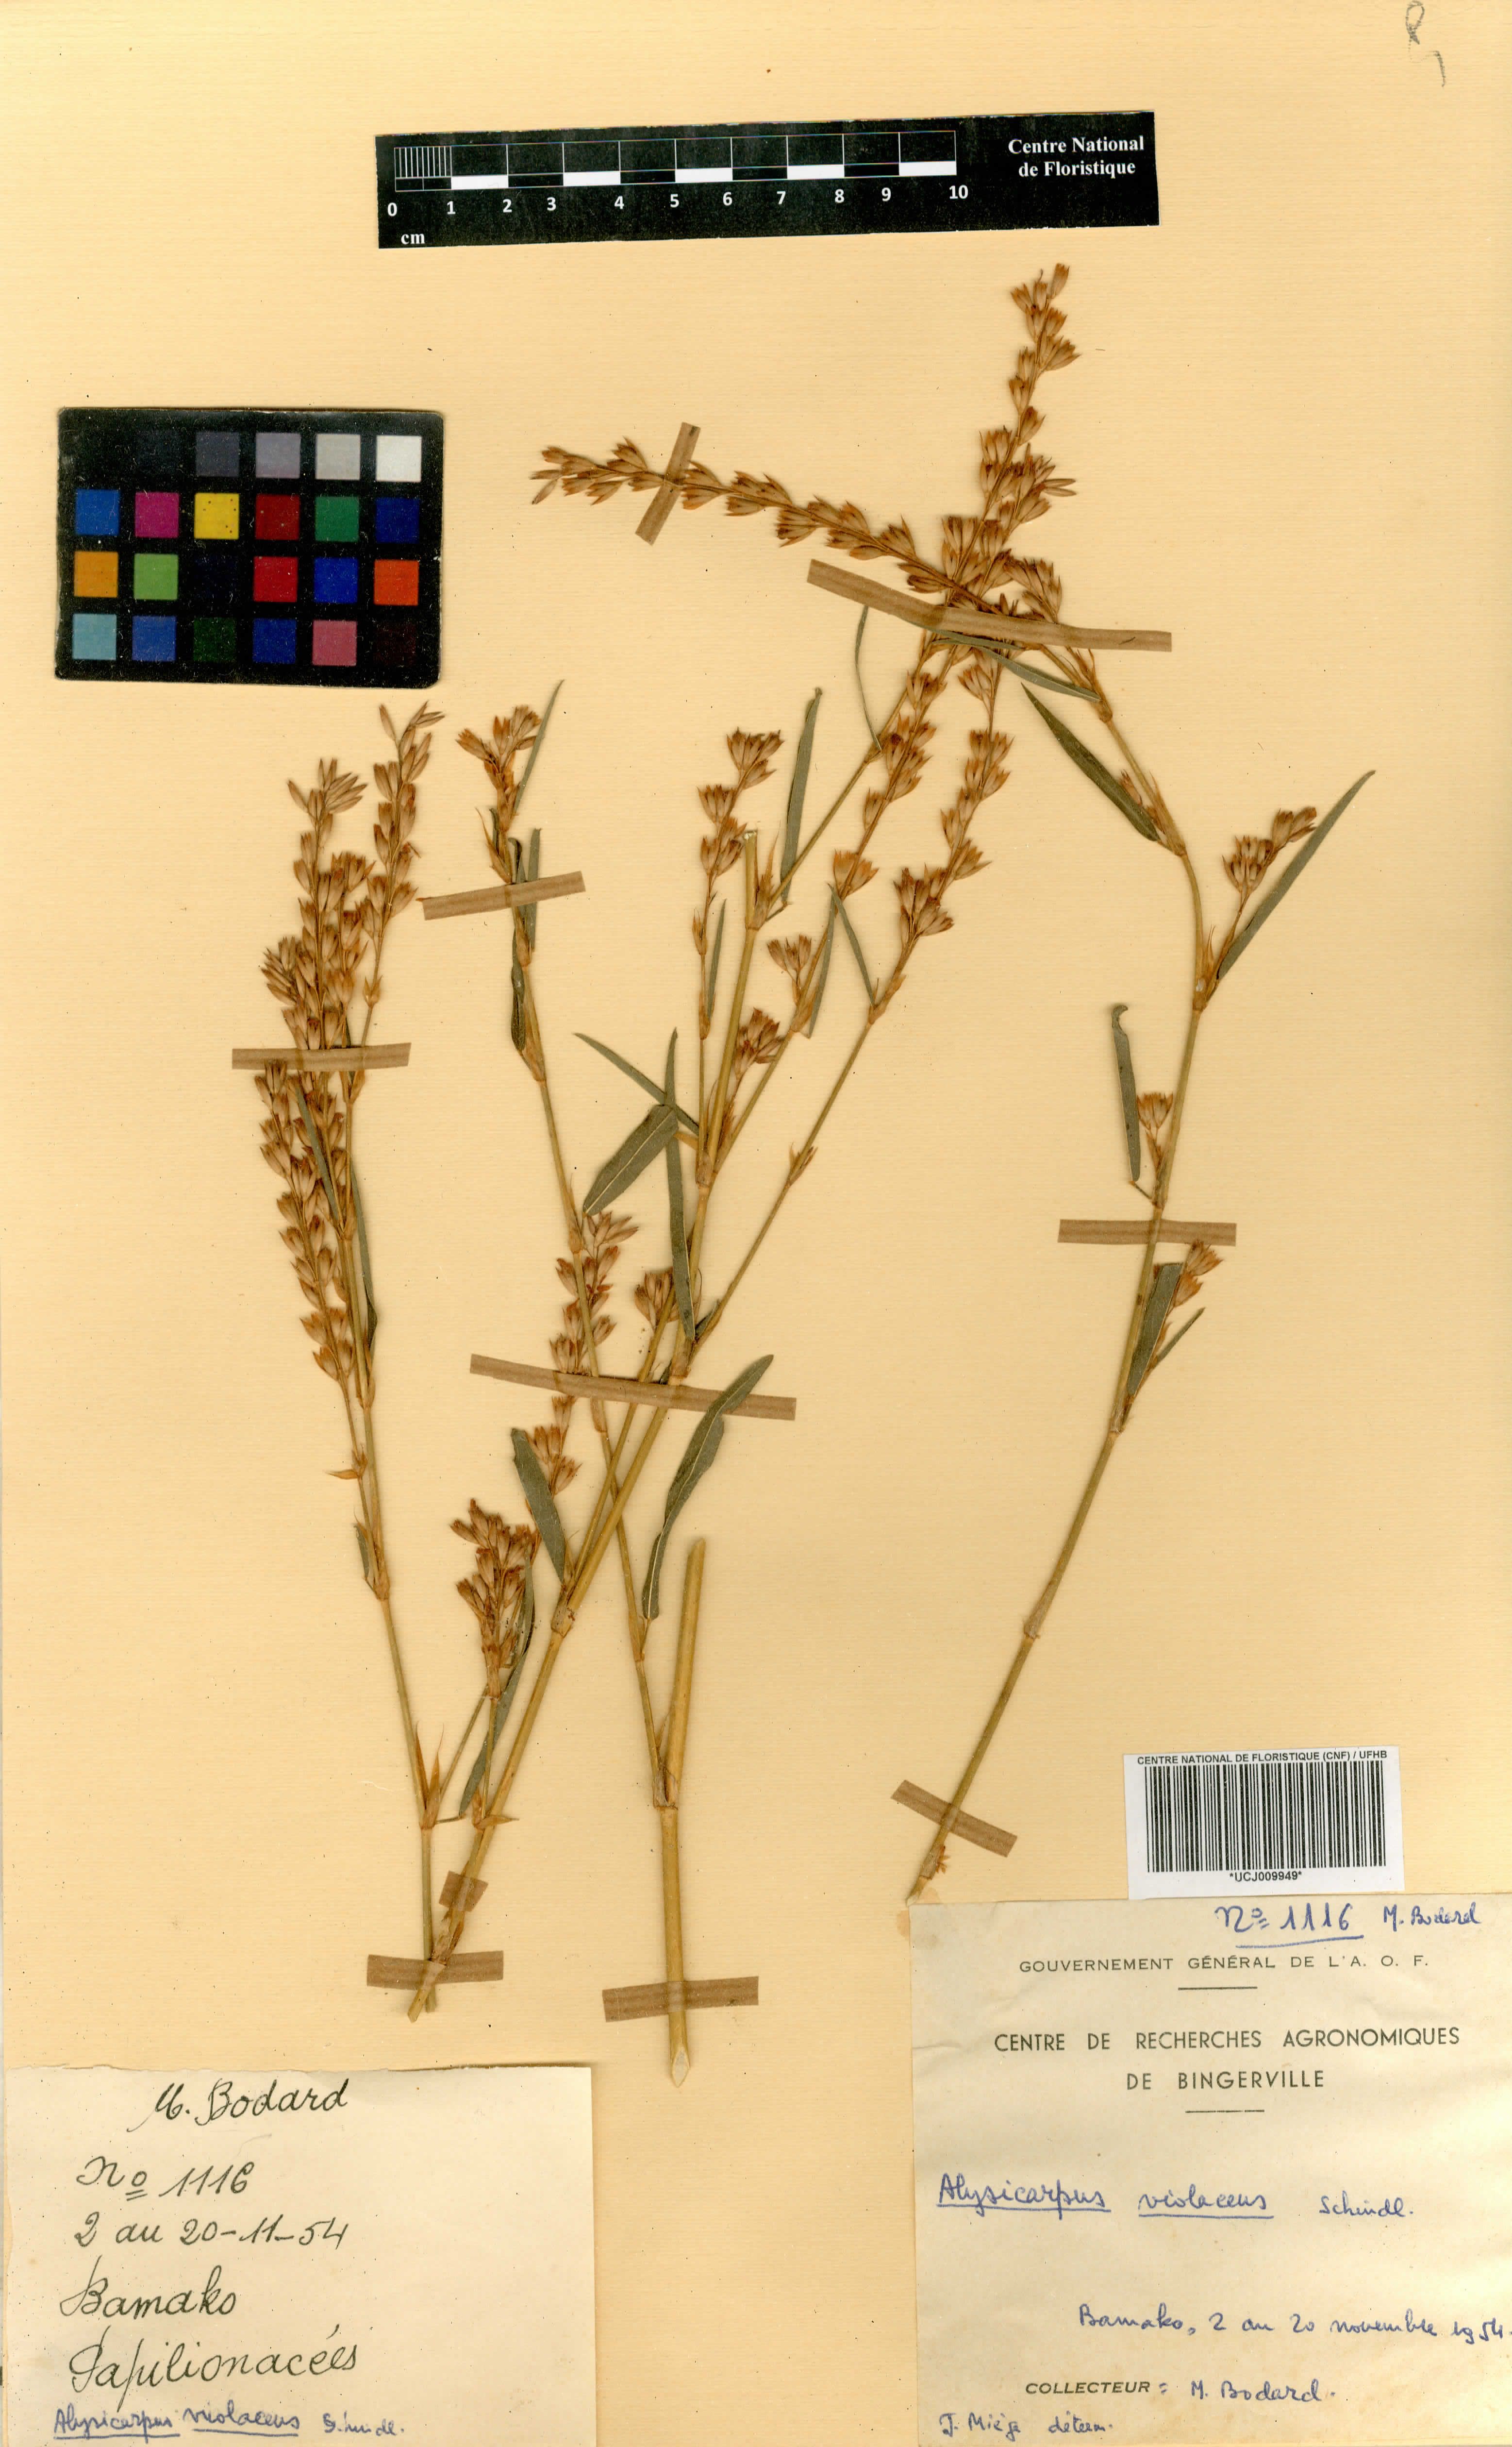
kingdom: Plantae
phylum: Tracheophyta
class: Magnoliopsida
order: Fabales
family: Fabaceae
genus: Alysicarpus
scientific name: Alysicarpus
